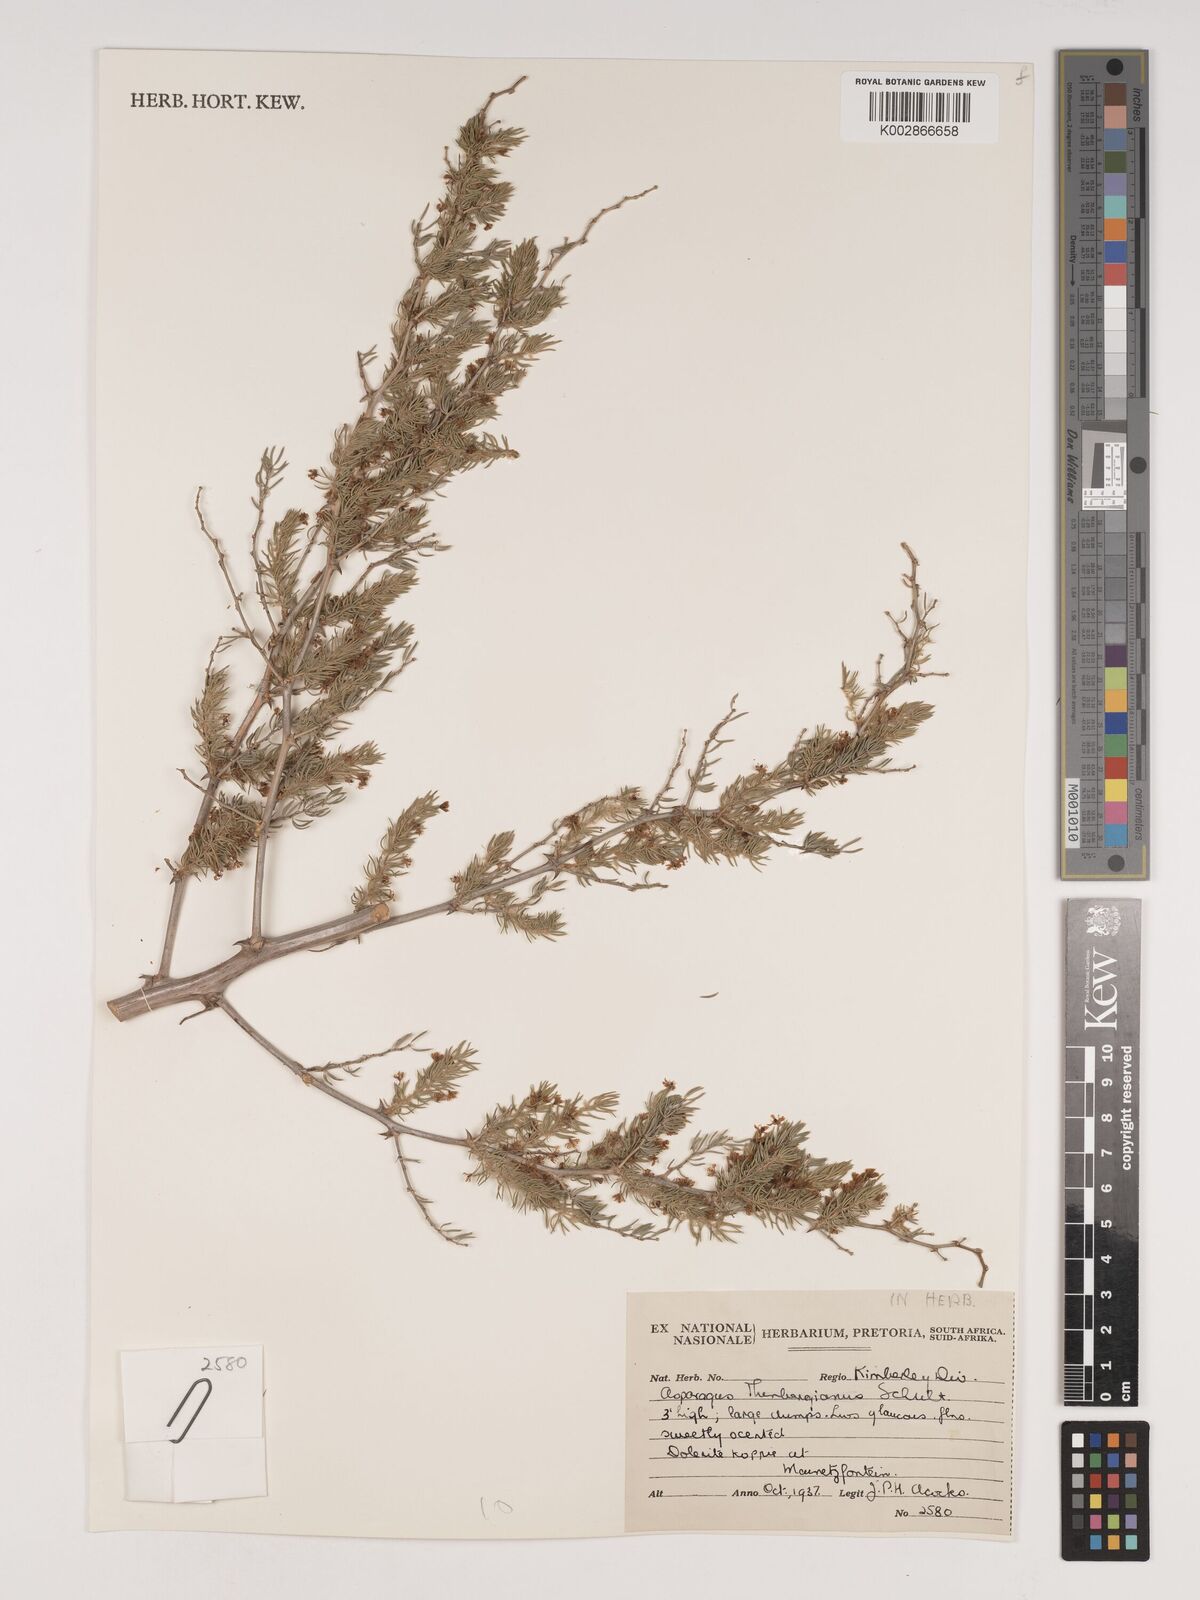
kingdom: Plantae
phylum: Tracheophyta
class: Liliopsida
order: Asparagales
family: Asparagaceae
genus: Asparagus
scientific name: Asparagus rubicundus
